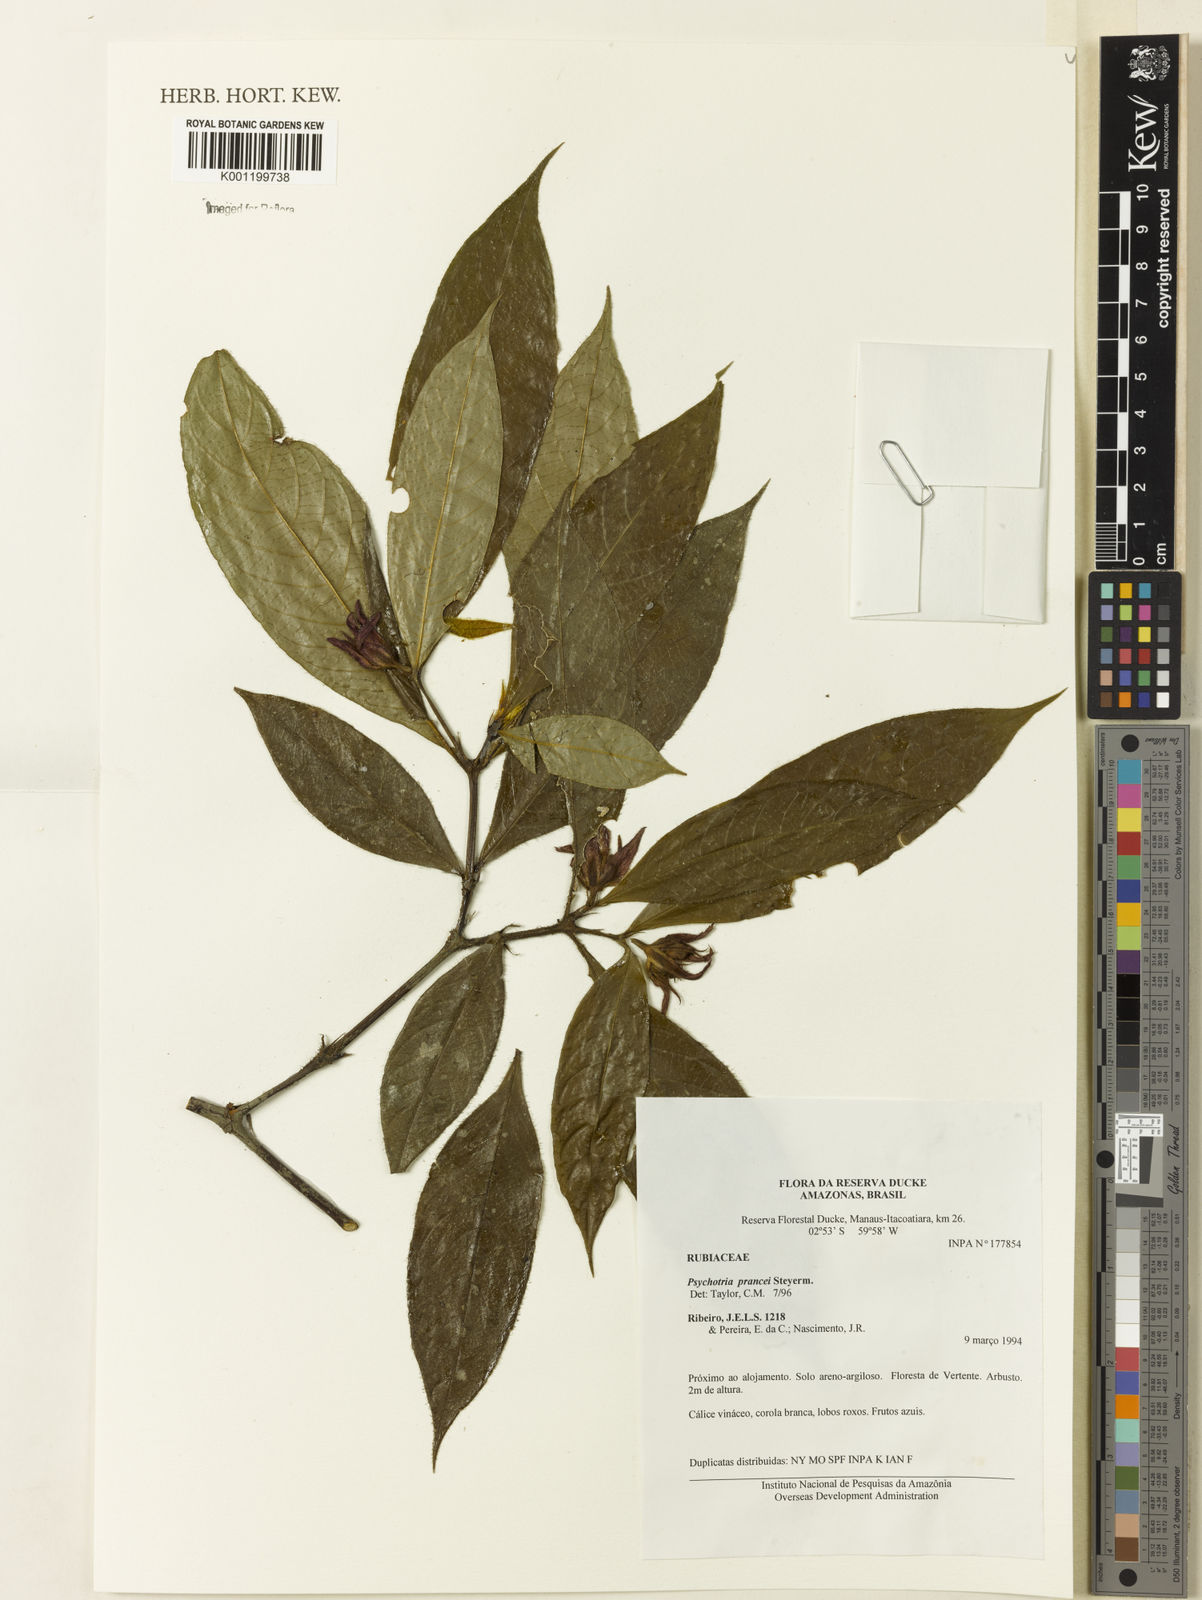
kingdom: Plantae
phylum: Tracheophyta
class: Magnoliopsida
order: Gentianales
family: Rubiaceae
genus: Palicourea
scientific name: Palicourea prancei
